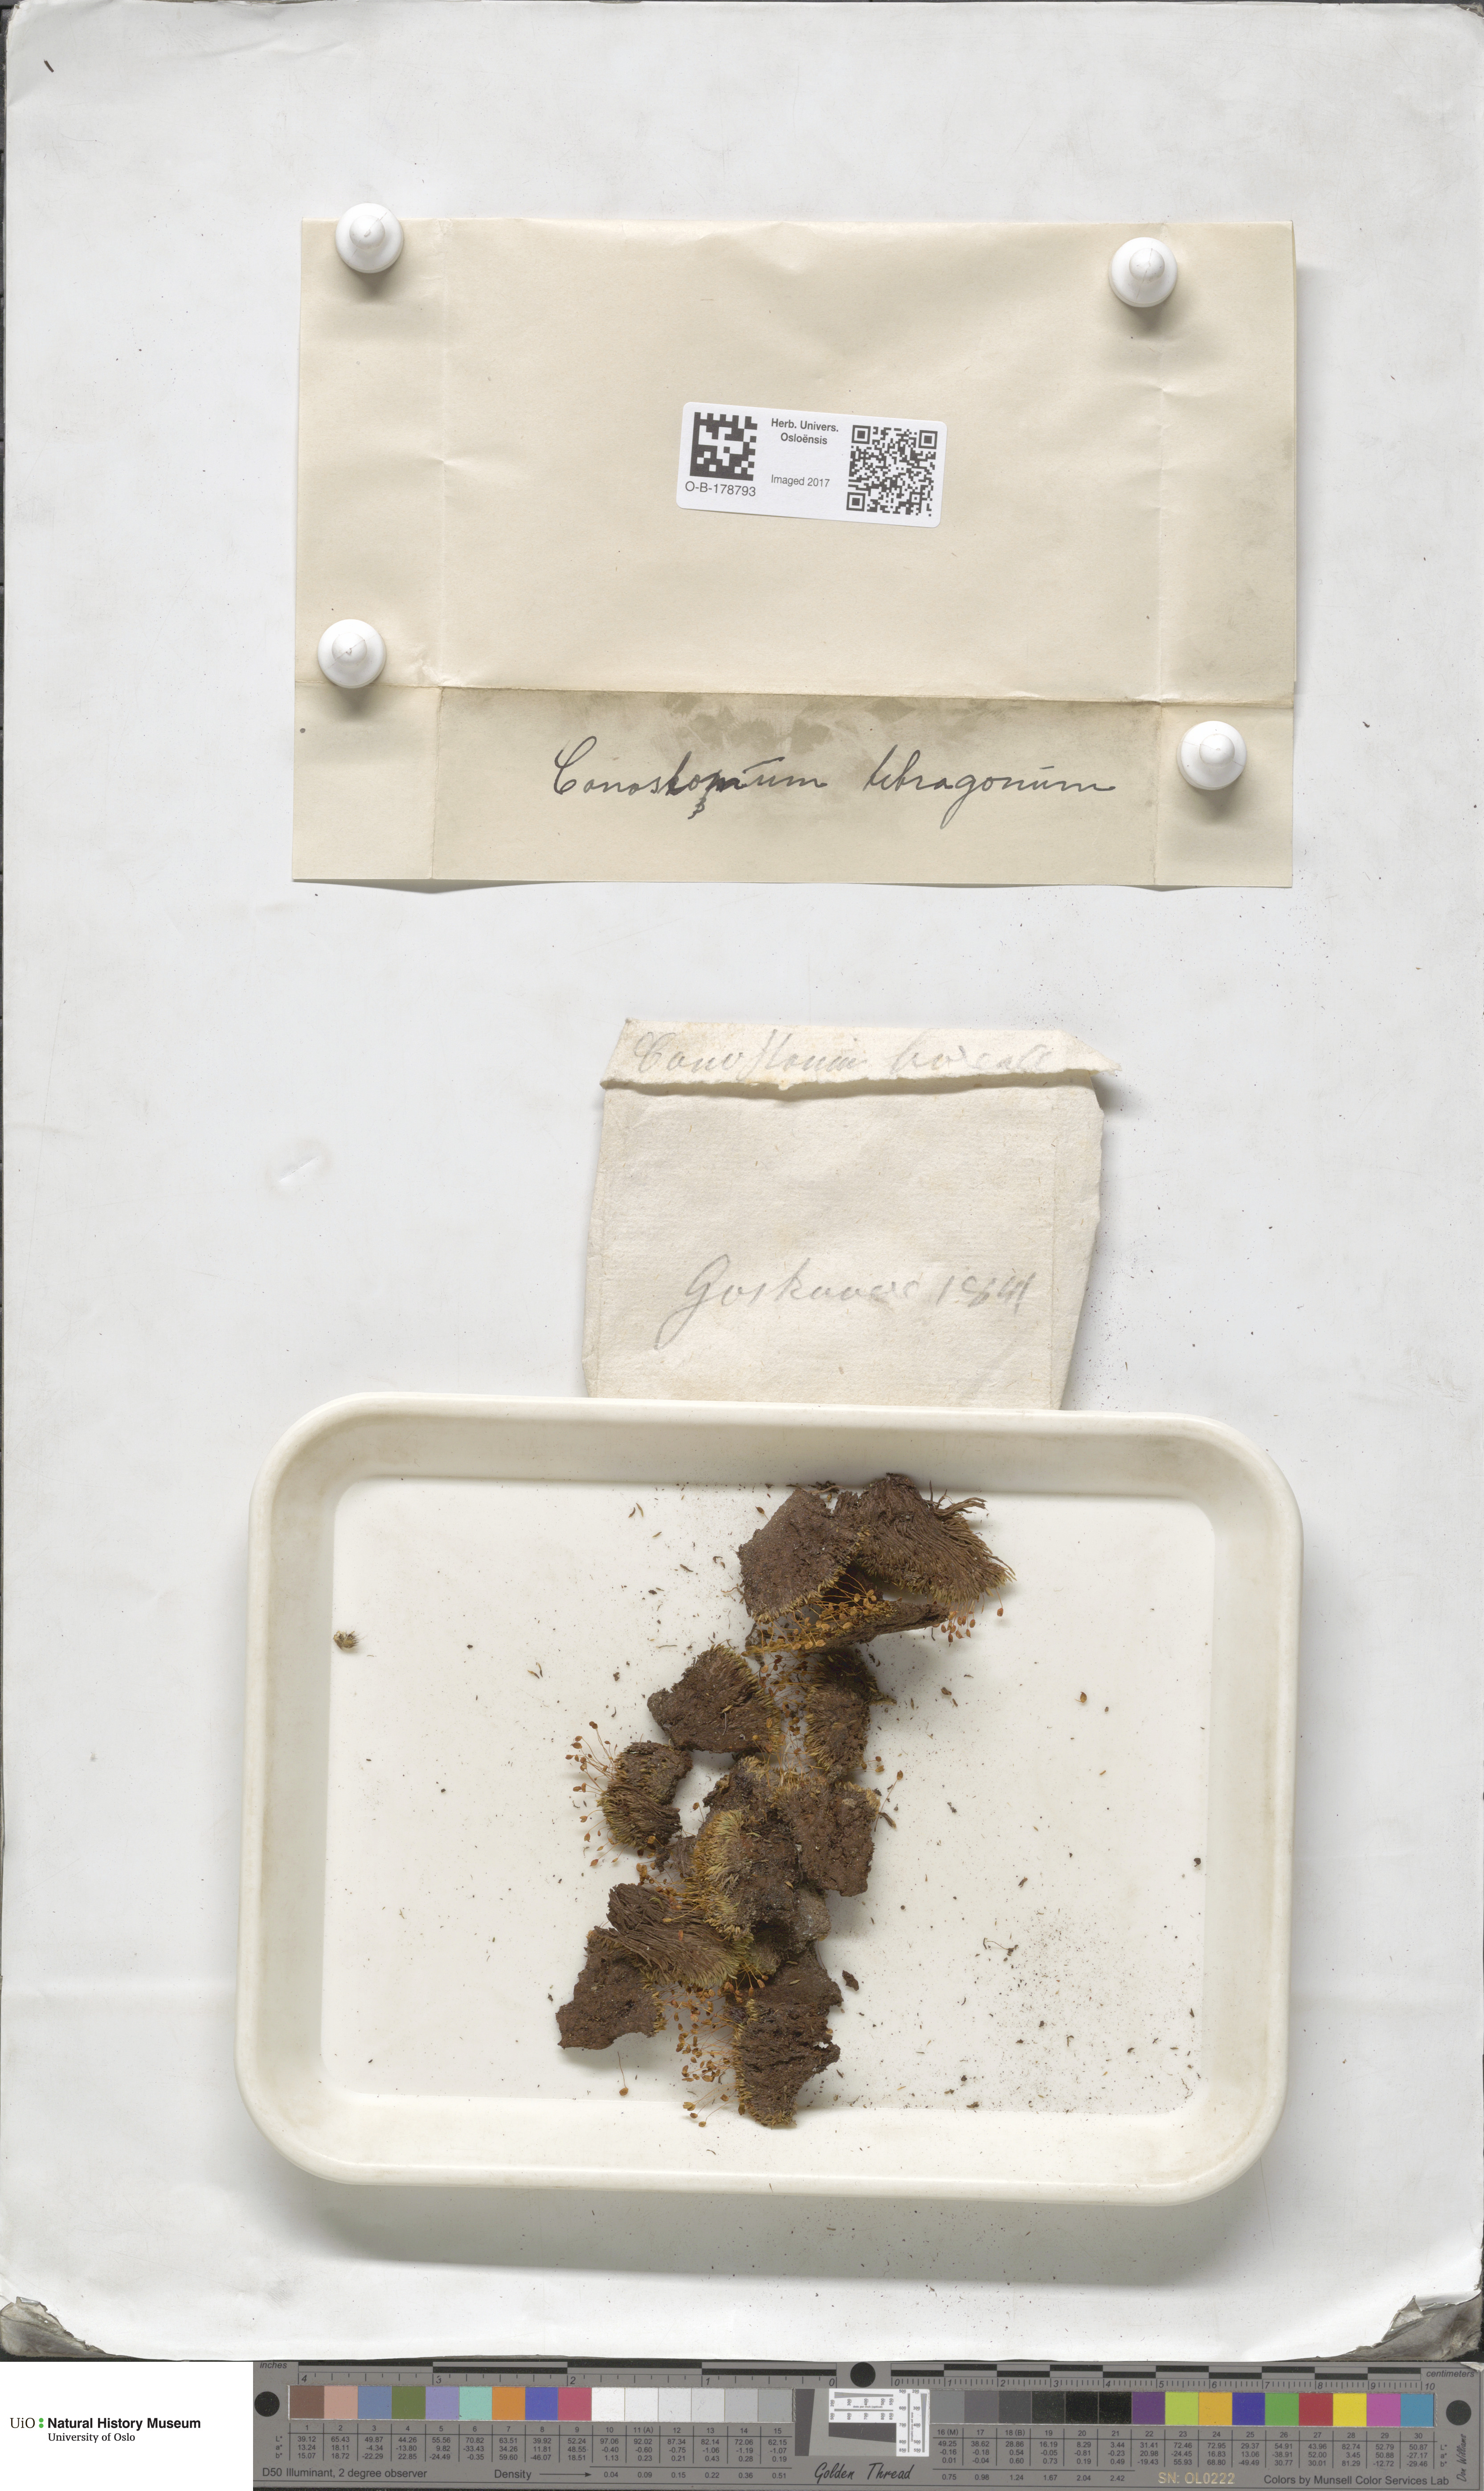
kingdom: Plantae
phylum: Bryophyta
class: Bryopsida
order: Bartramiales
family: Bartramiaceae
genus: Conostomum
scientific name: Conostomum tetragonum
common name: Helmet moss
